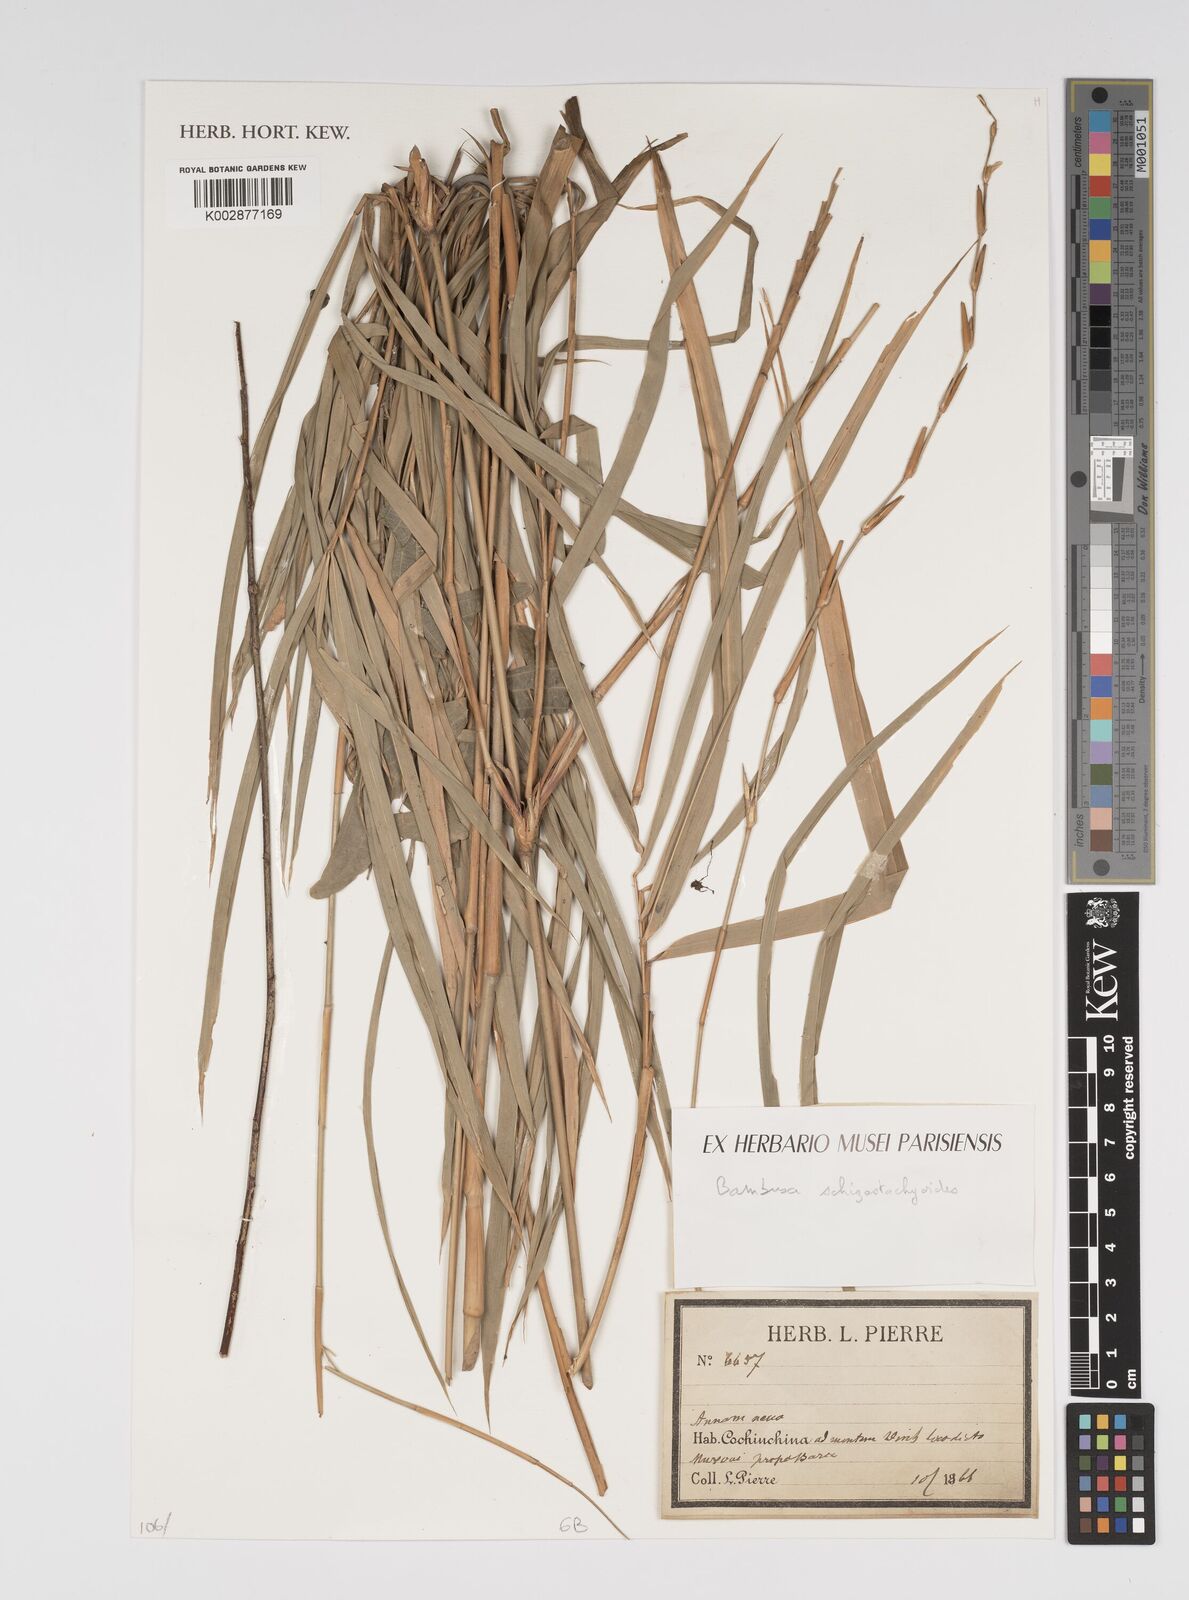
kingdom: Plantae
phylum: Tracheophyta
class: Liliopsida
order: Poales
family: Poaceae
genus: Pseudobambusa
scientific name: Pseudobambusa schizostachyoides
